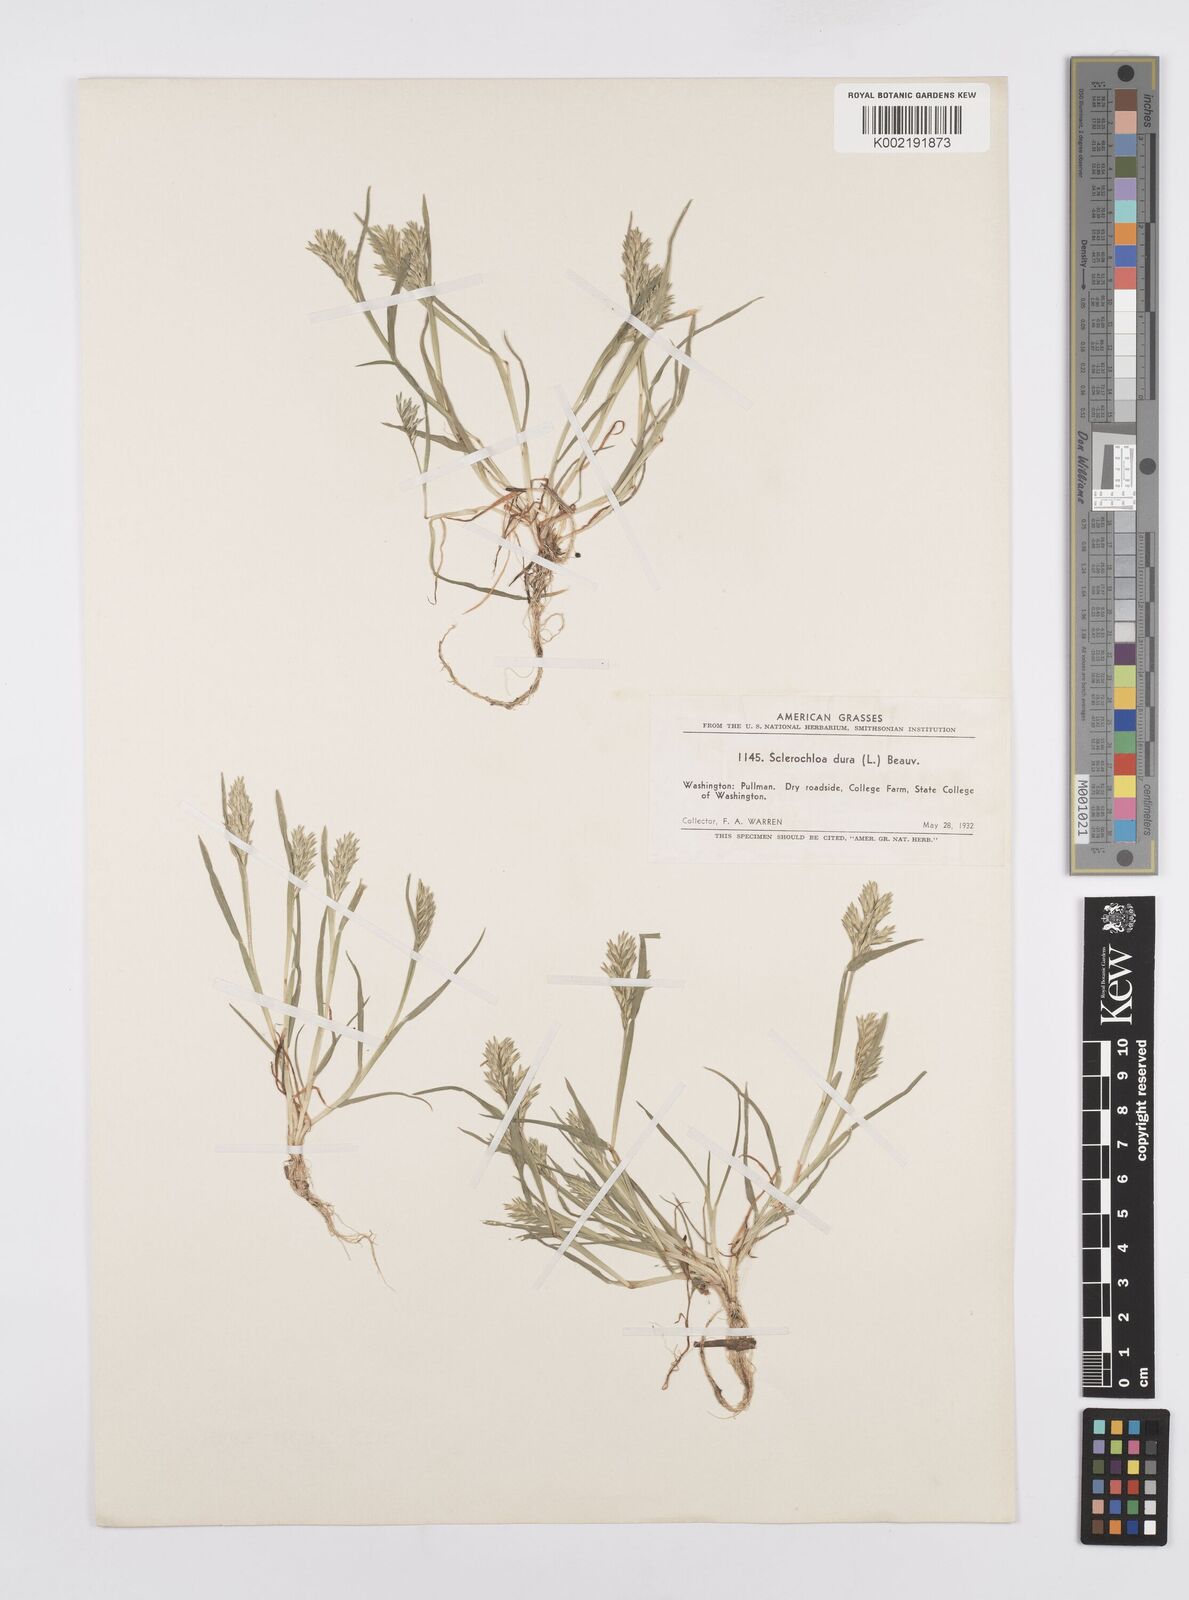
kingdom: Plantae
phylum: Tracheophyta
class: Liliopsida
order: Poales
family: Poaceae
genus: Sclerochloa
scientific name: Sclerochloa dura
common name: Common hardgrass
